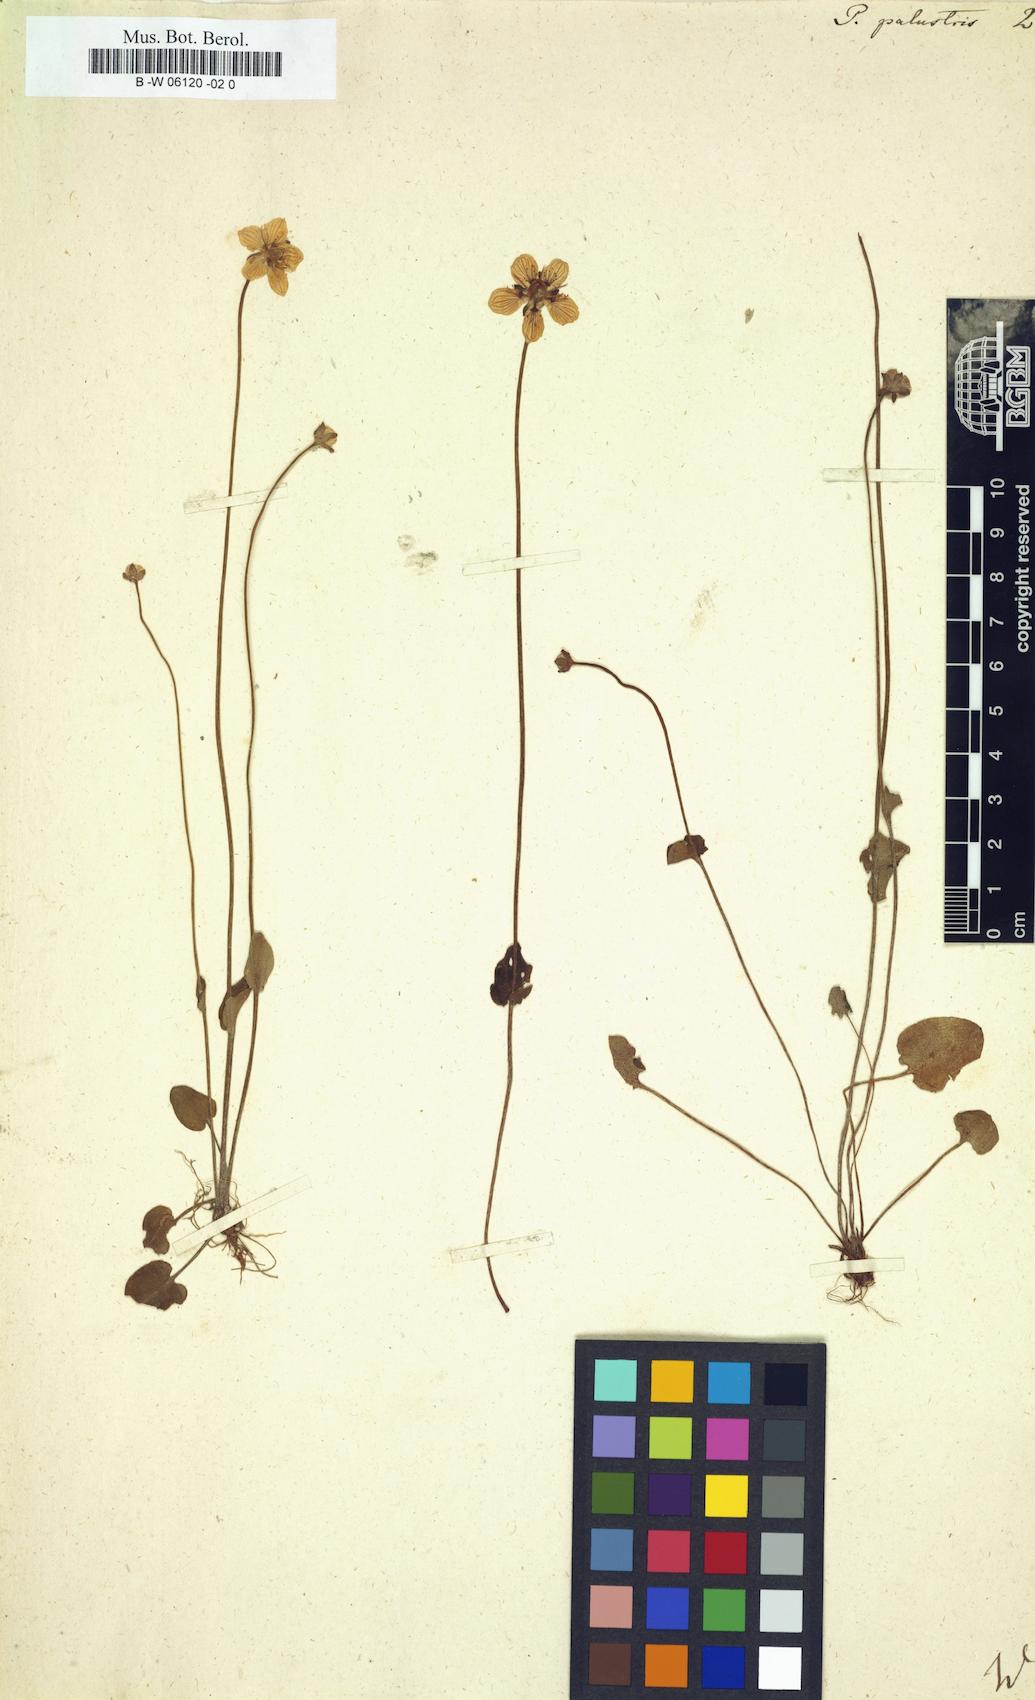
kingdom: Plantae
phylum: Tracheophyta
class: Magnoliopsida
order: Celastrales
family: Parnassiaceae
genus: Parnassia
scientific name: Parnassia palustris
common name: Grass-of-parnassus
